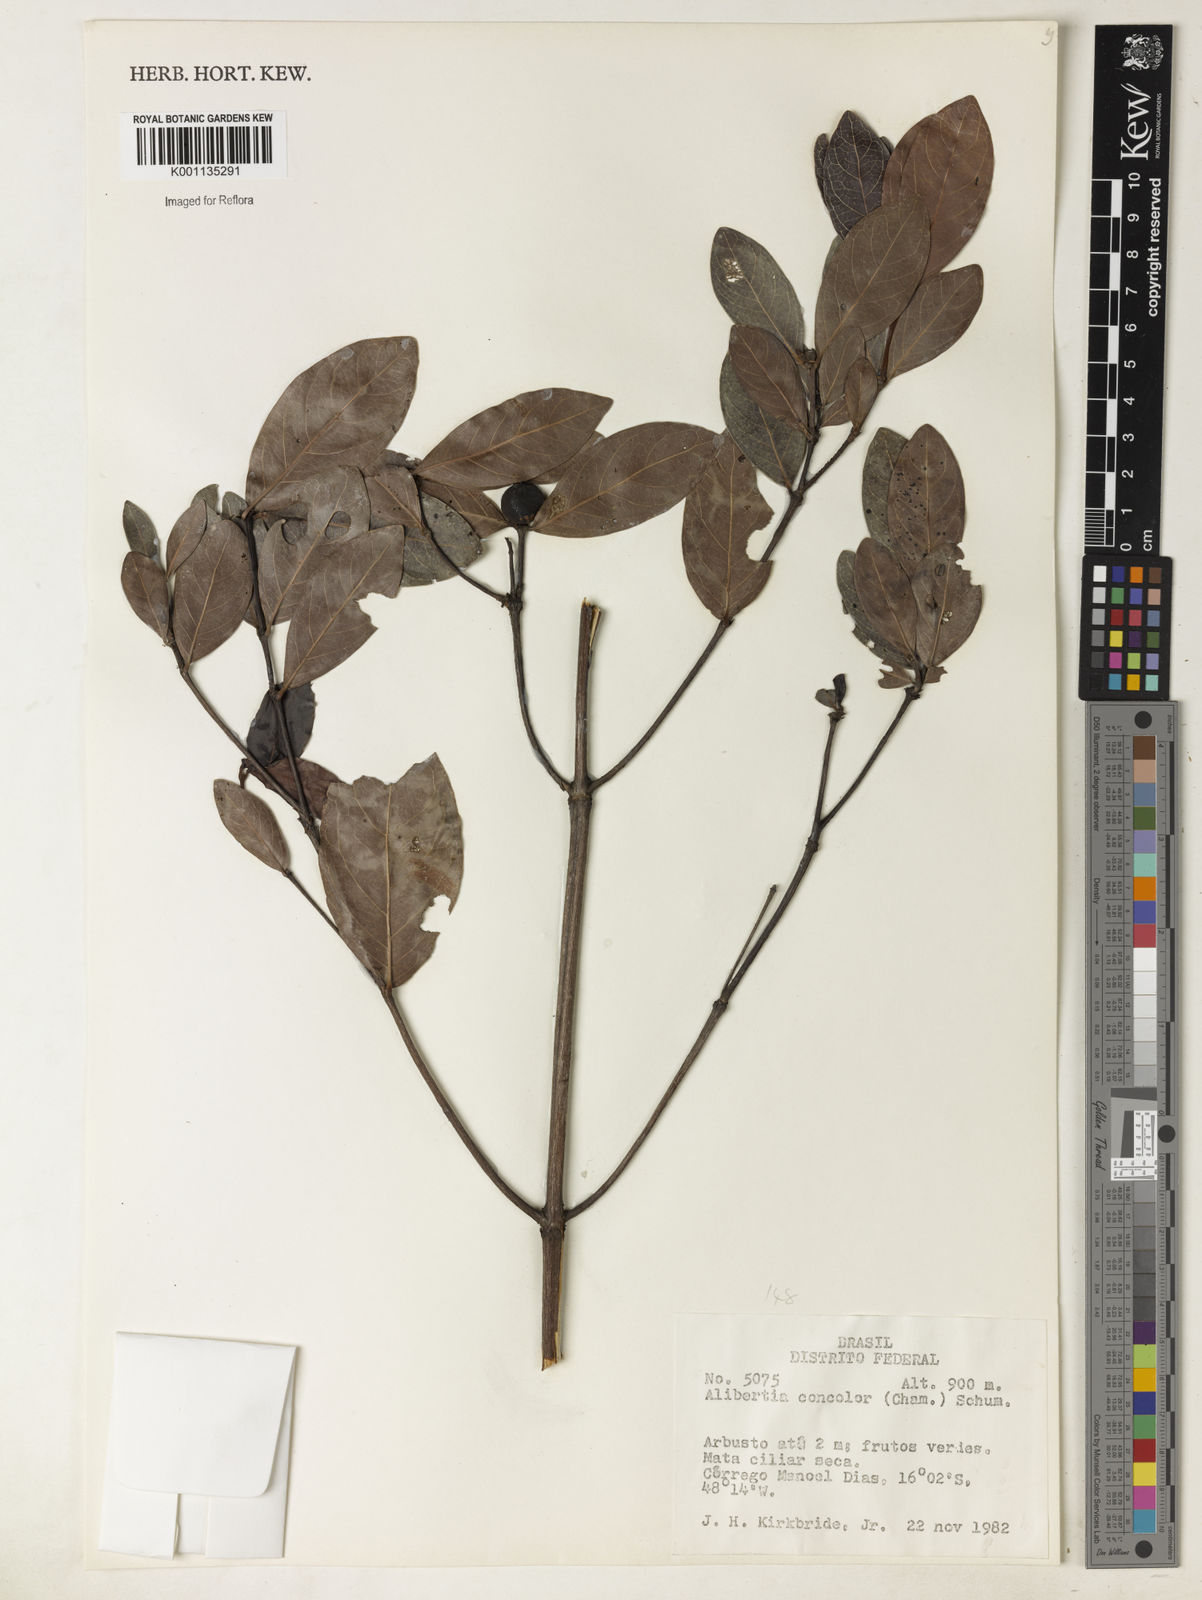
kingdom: Plantae
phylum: Tracheophyta
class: Magnoliopsida
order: Gentianales
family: Rubiaceae
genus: Cordiera
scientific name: Cordiera concolor
